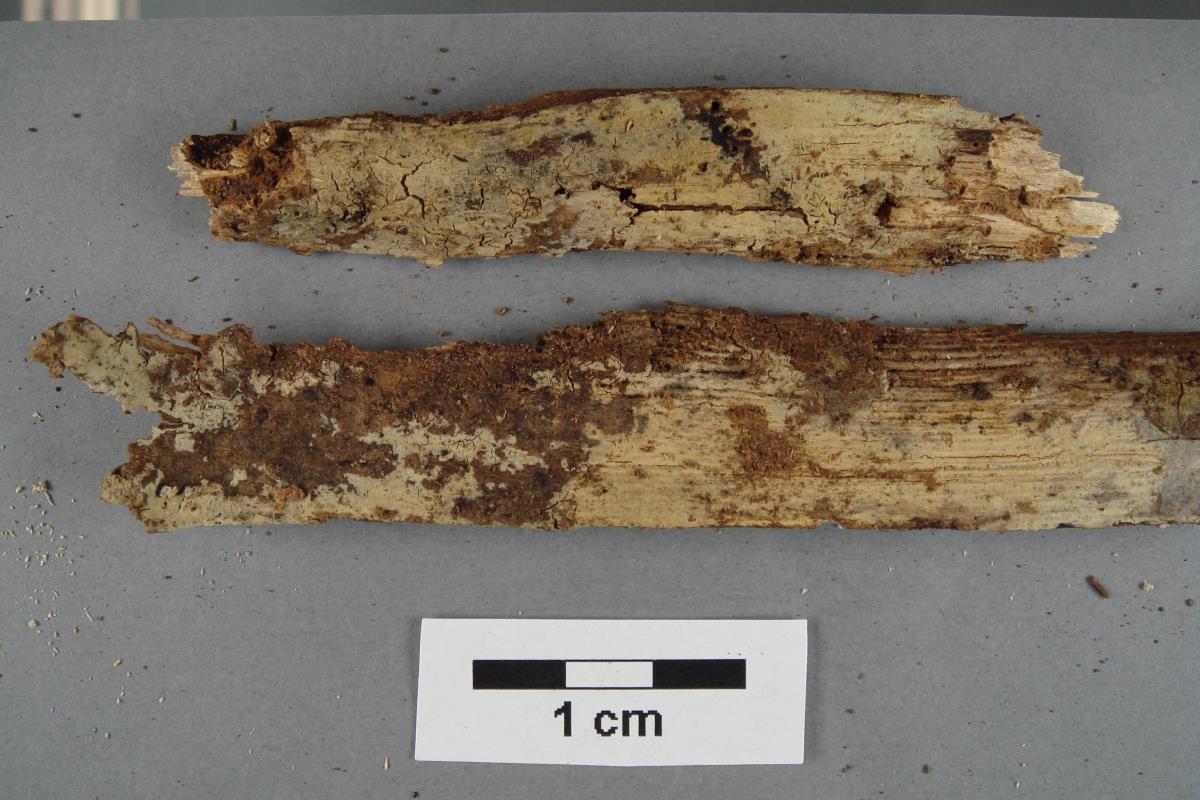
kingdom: Fungi
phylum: Basidiomycota
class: Agaricomycetes
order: Russulales
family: Xenasmataceae
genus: Phlebiella
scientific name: Phlebiella sulphurea
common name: Yellow cobweb
